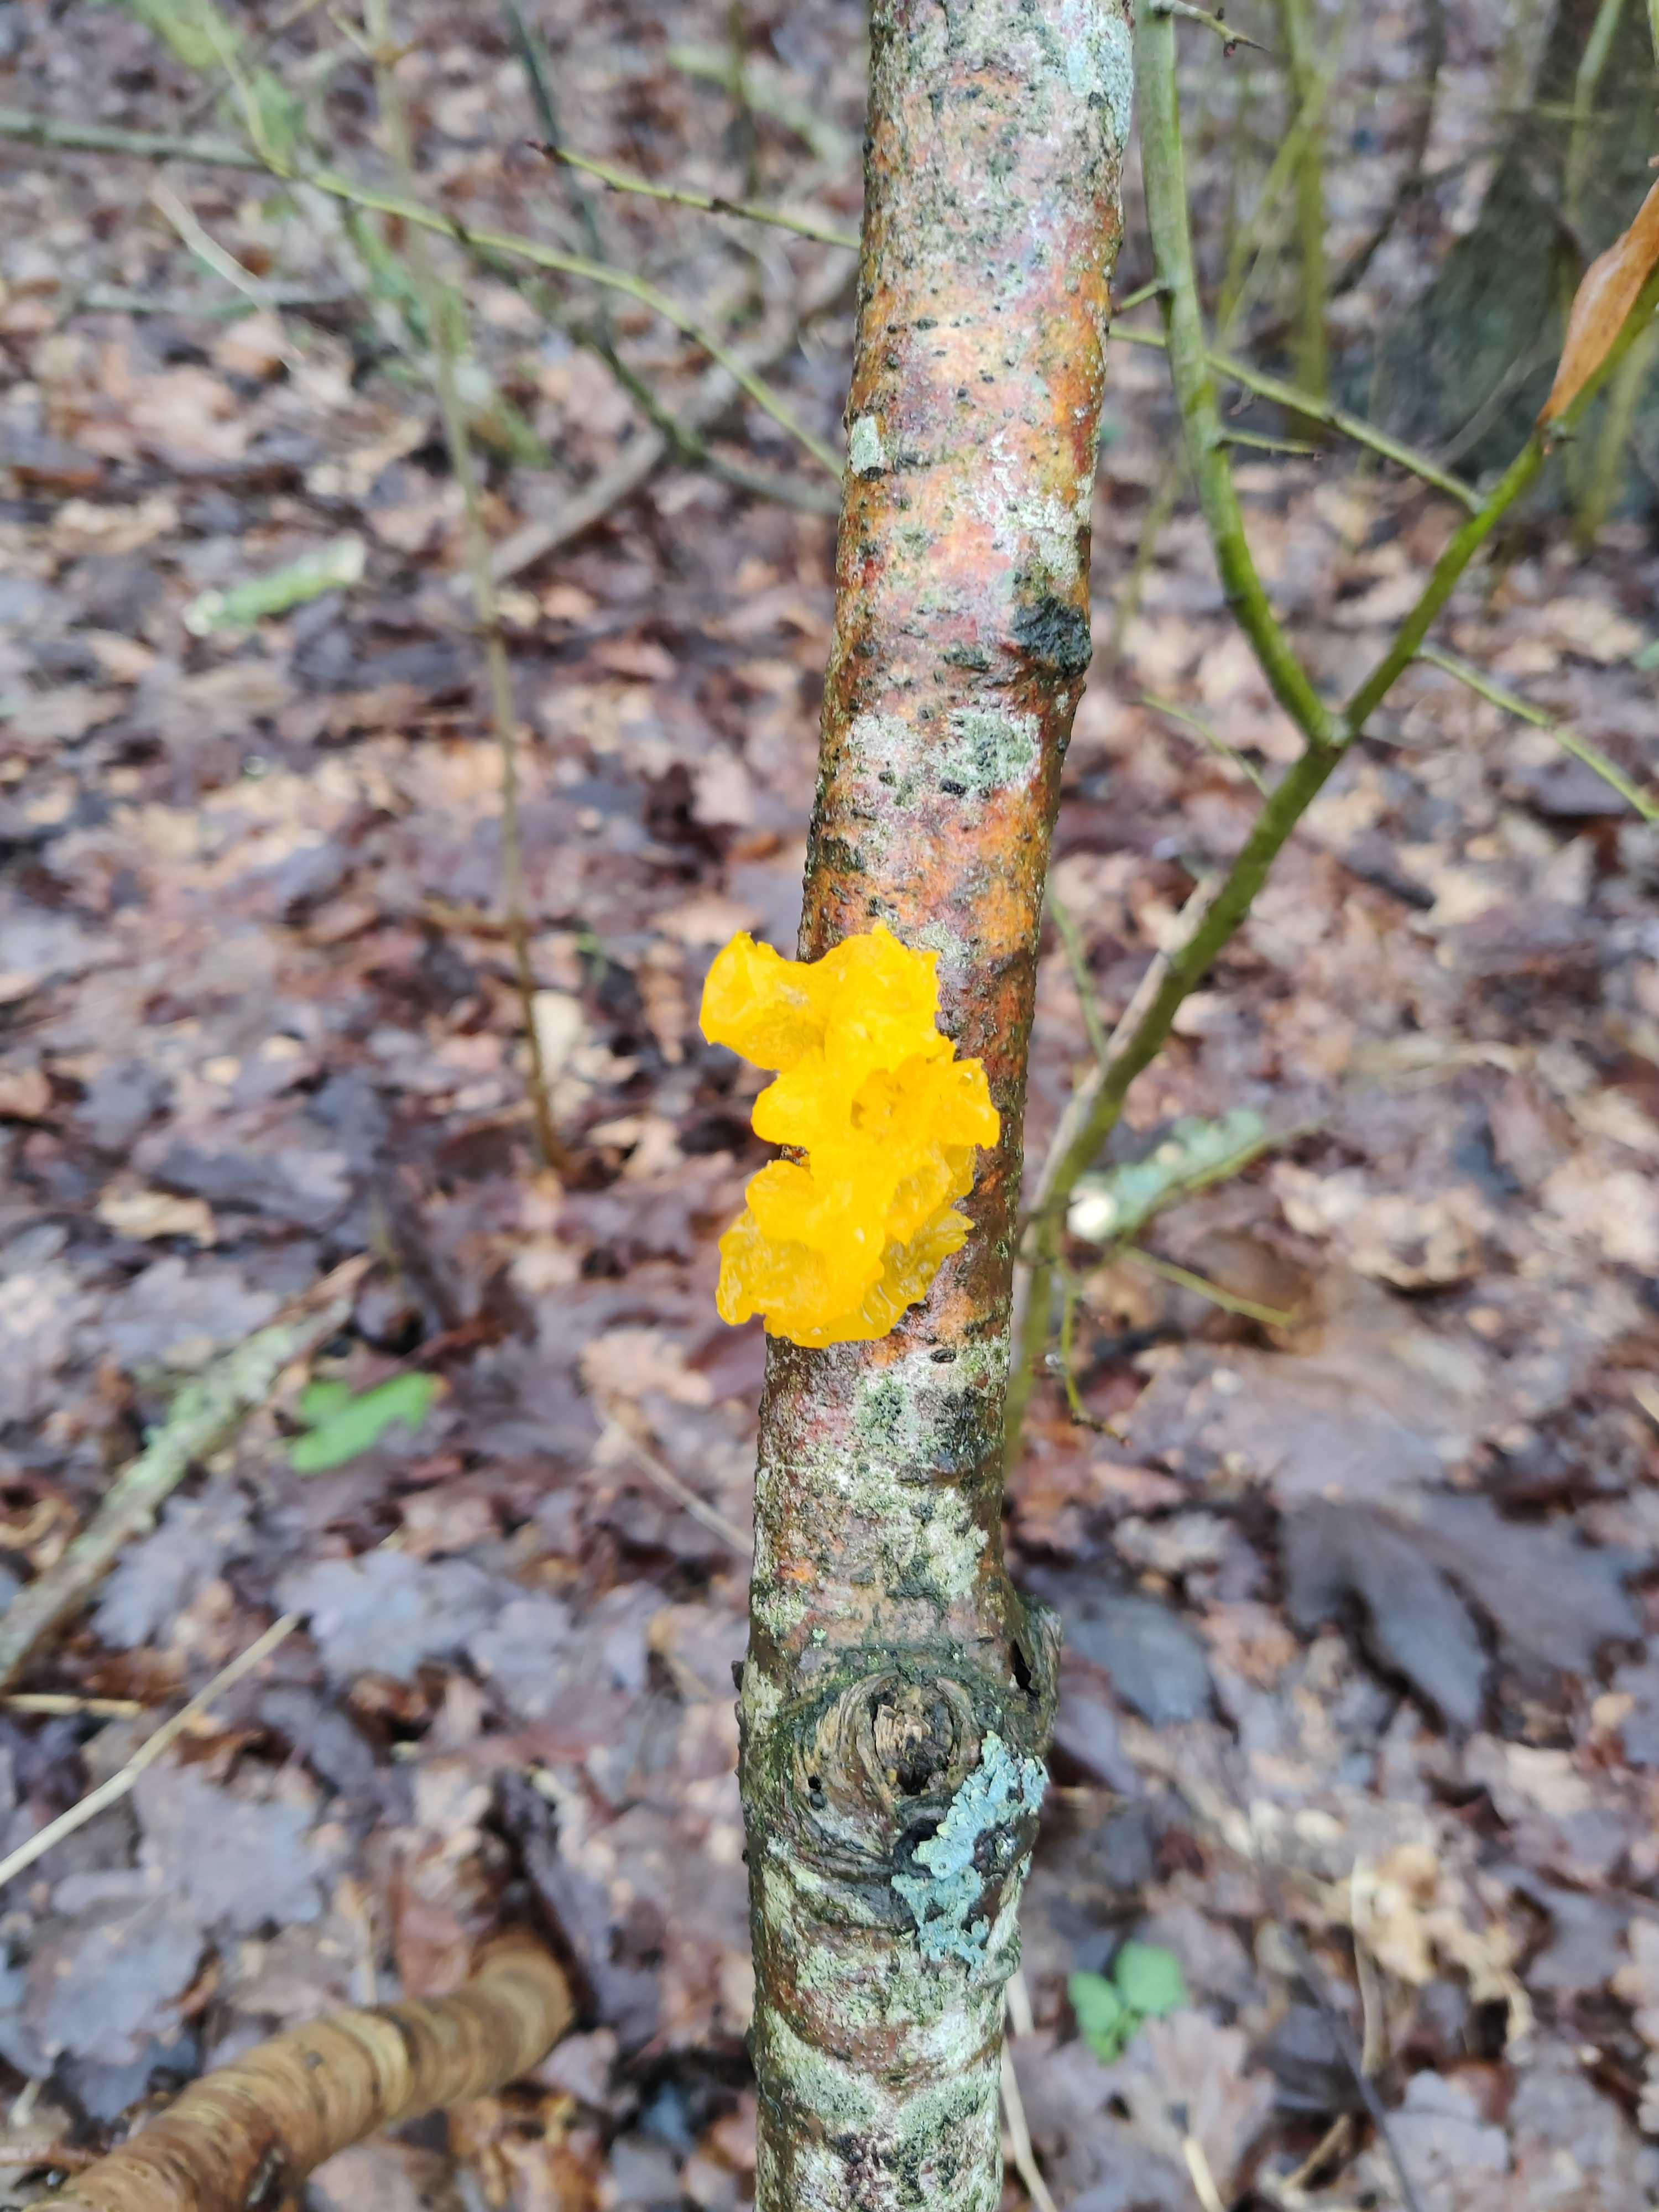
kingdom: Fungi
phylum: Basidiomycota
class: Tremellomycetes
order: Tremellales
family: Tremellaceae
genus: Tremella
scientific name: Tremella mesenterica
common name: gul bævresvamp
